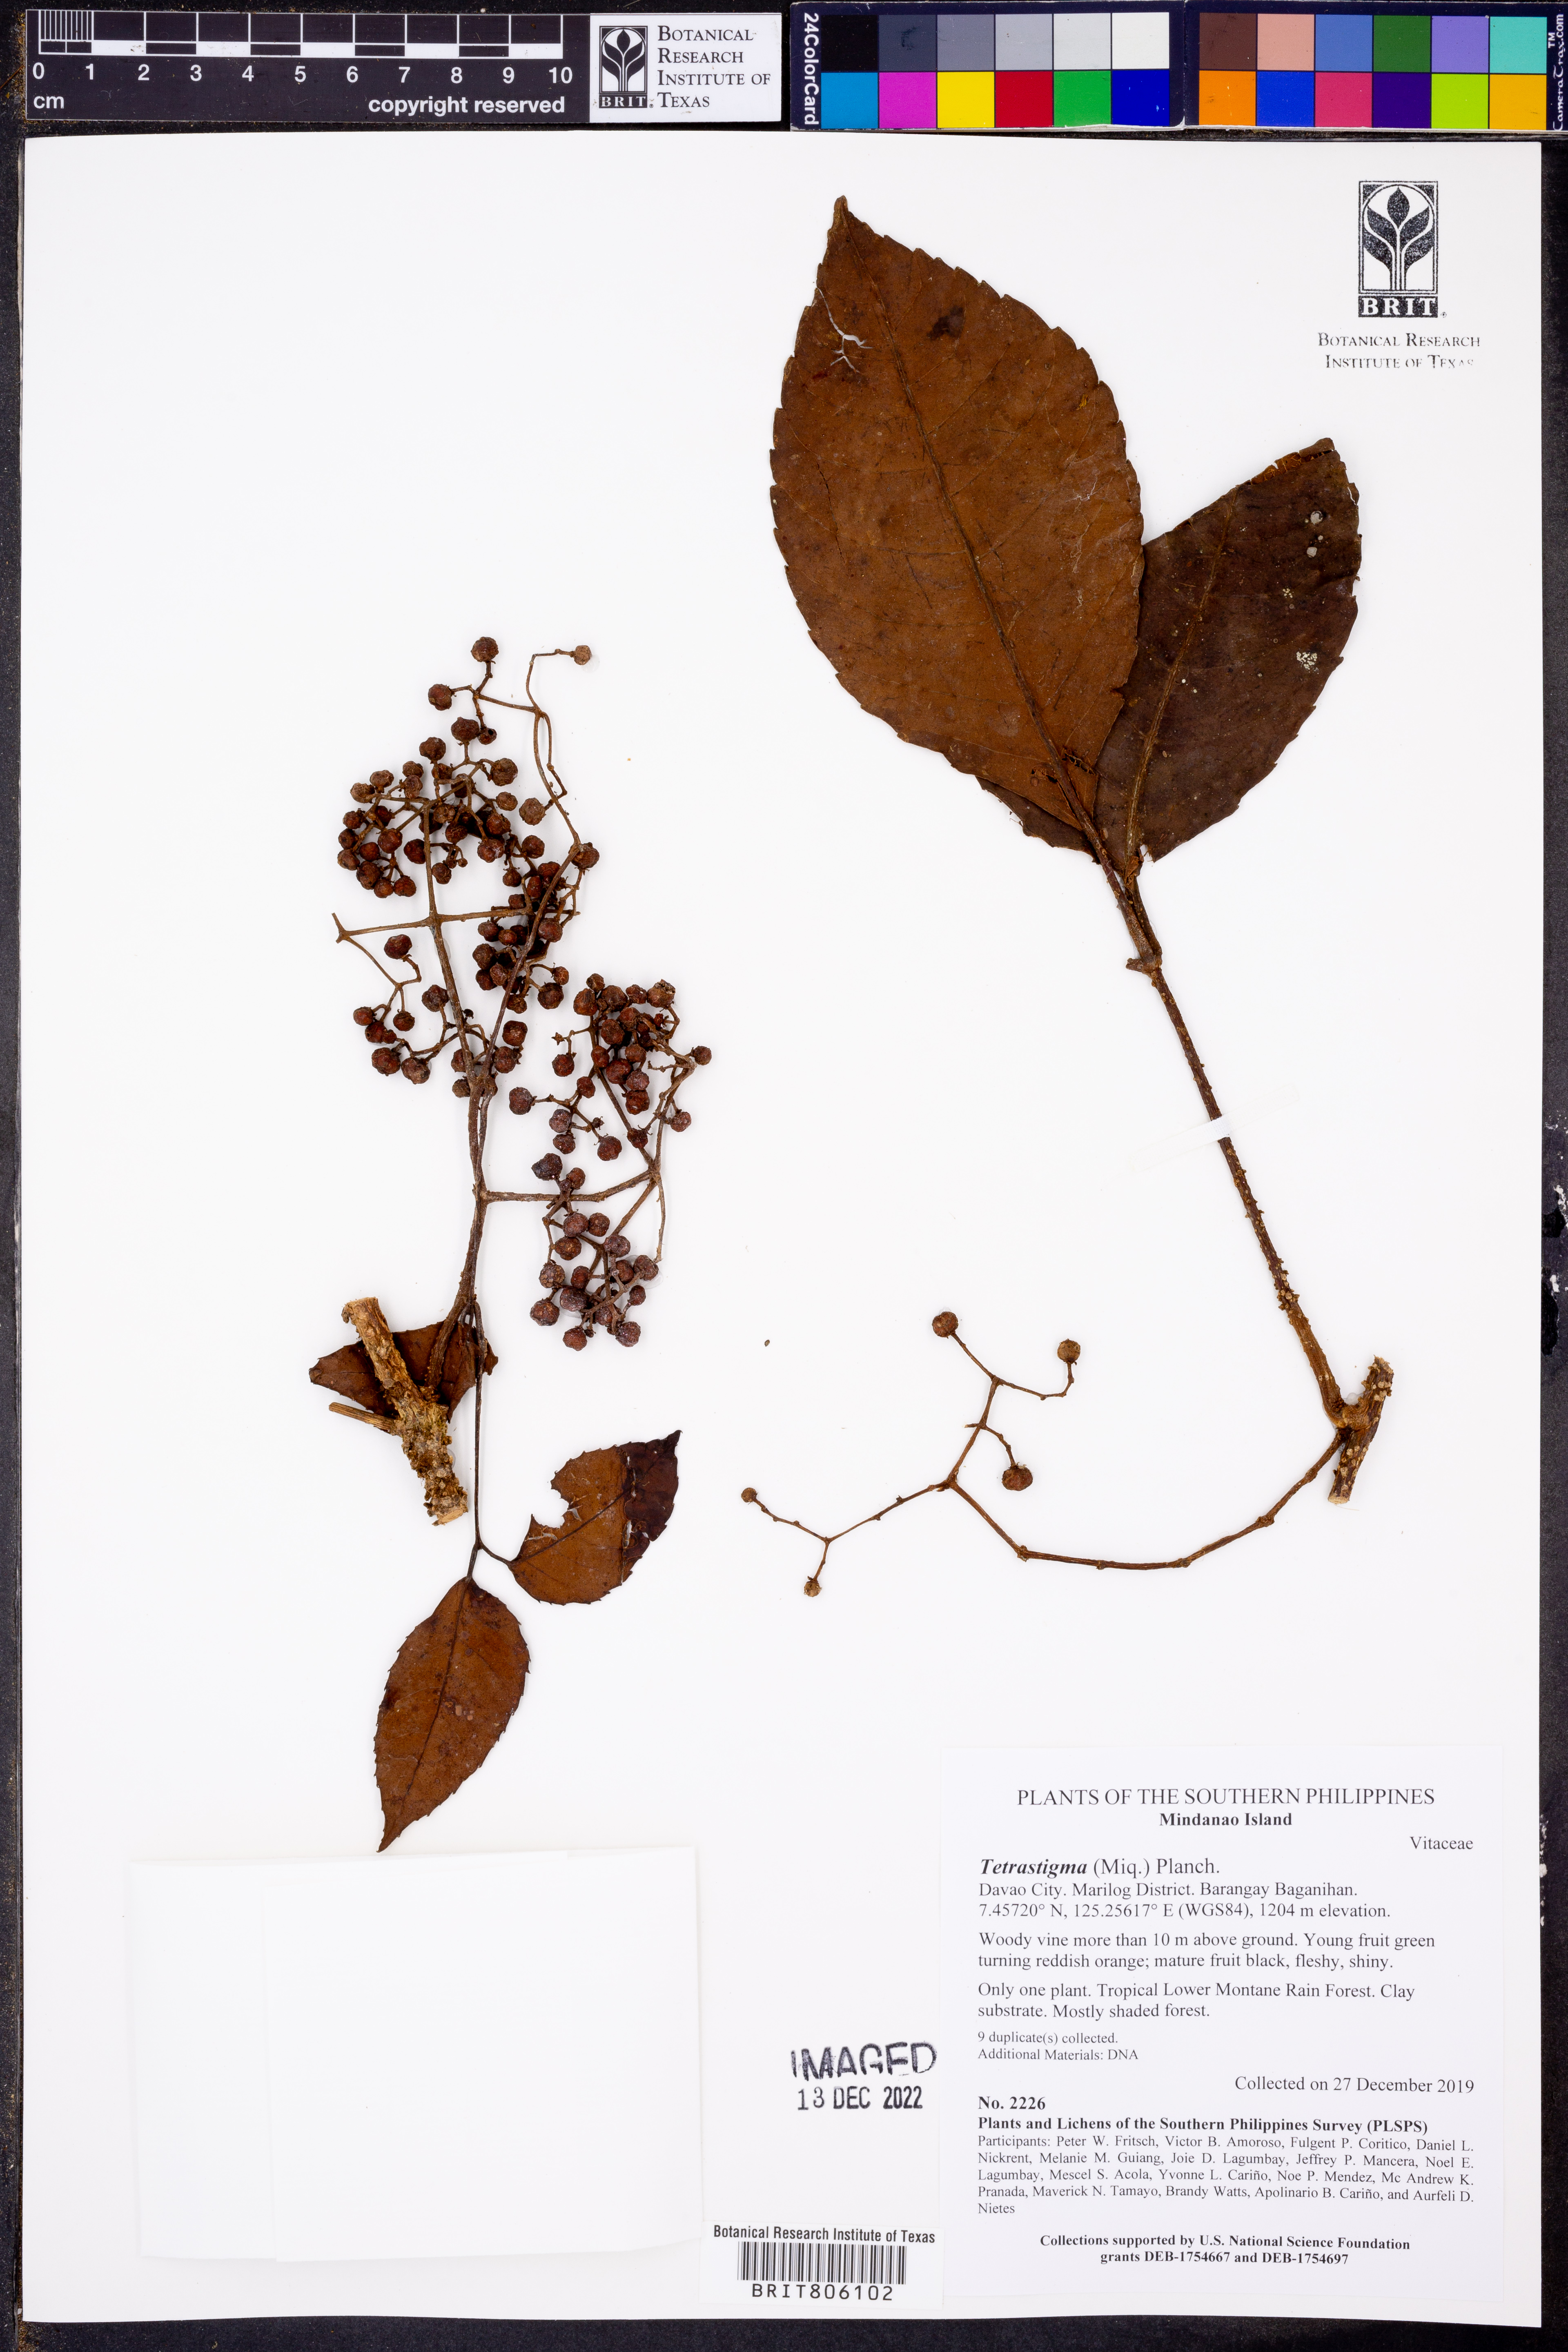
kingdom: Plantae
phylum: Tracheophyta
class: Magnoliopsida
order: Vitales
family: Vitaceae
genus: Tetrastigma
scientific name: Tetrastigma
